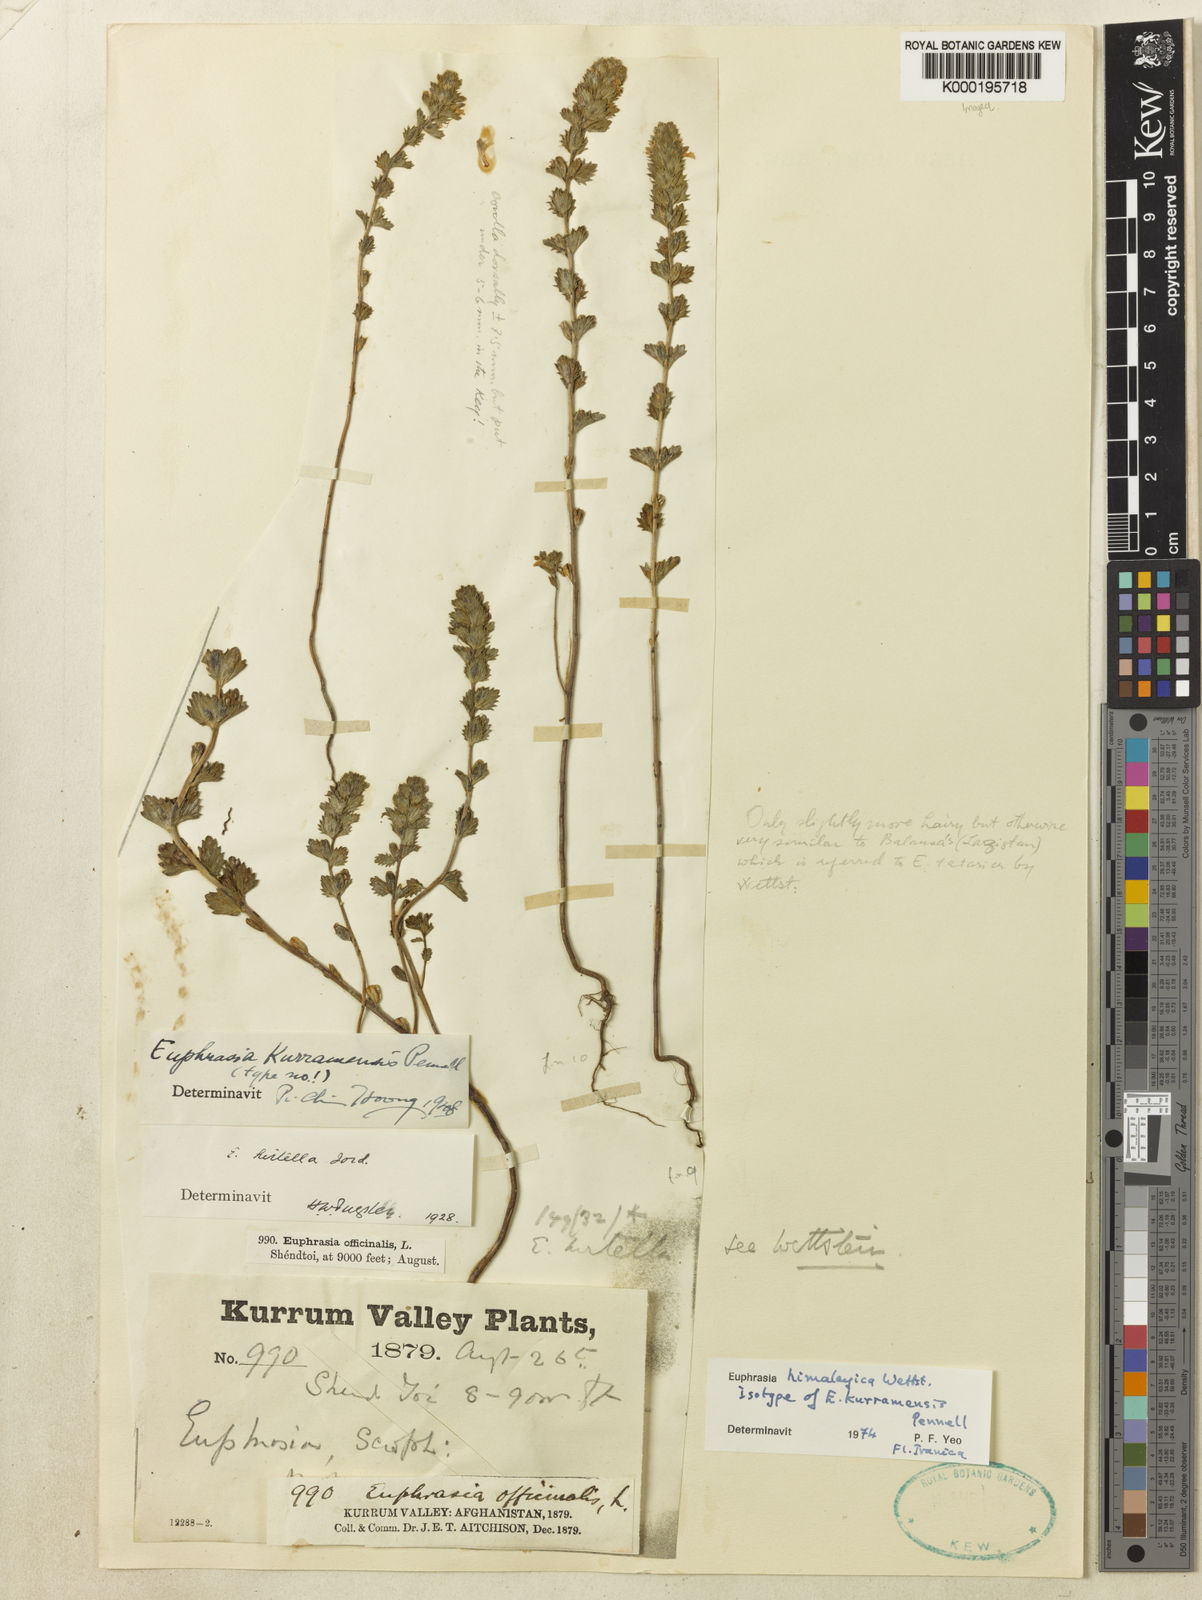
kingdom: Plantae
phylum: Tracheophyta
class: Magnoliopsida
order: Lamiales
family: Orobanchaceae
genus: Euphrasia
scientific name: Euphrasia himalayica
